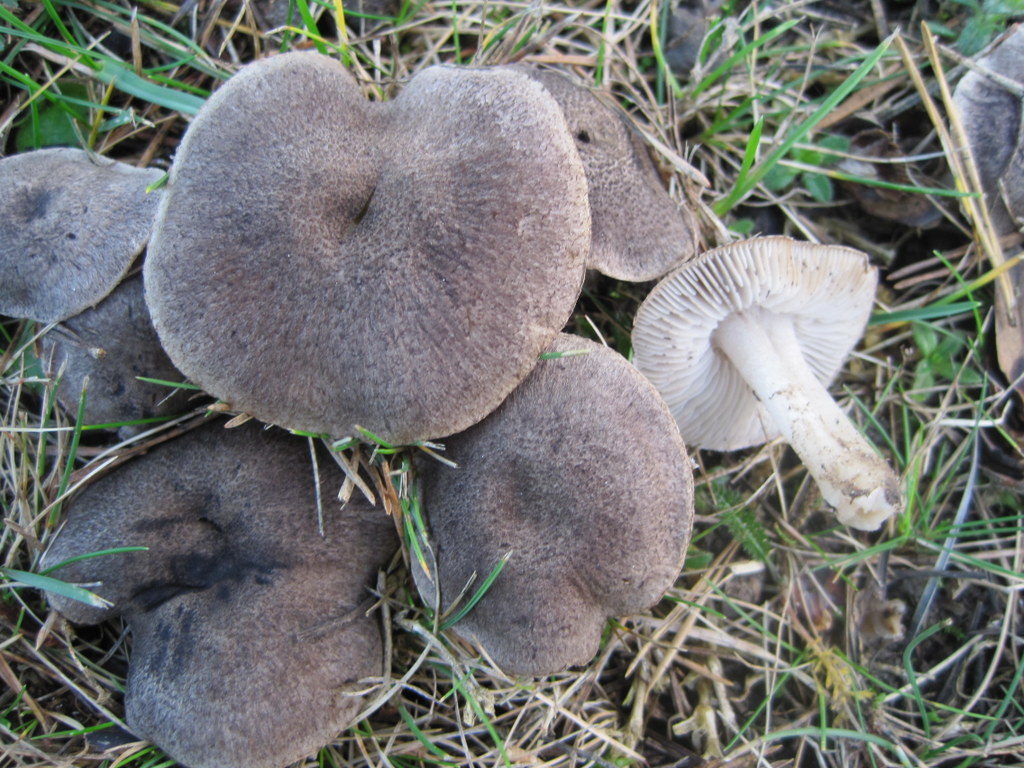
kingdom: Fungi
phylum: Basidiomycota
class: Agaricomycetes
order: Agaricales
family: Tricholomataceae
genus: Tricholoma
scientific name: Tricholoma terreum
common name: jordfarvet ridderhat
